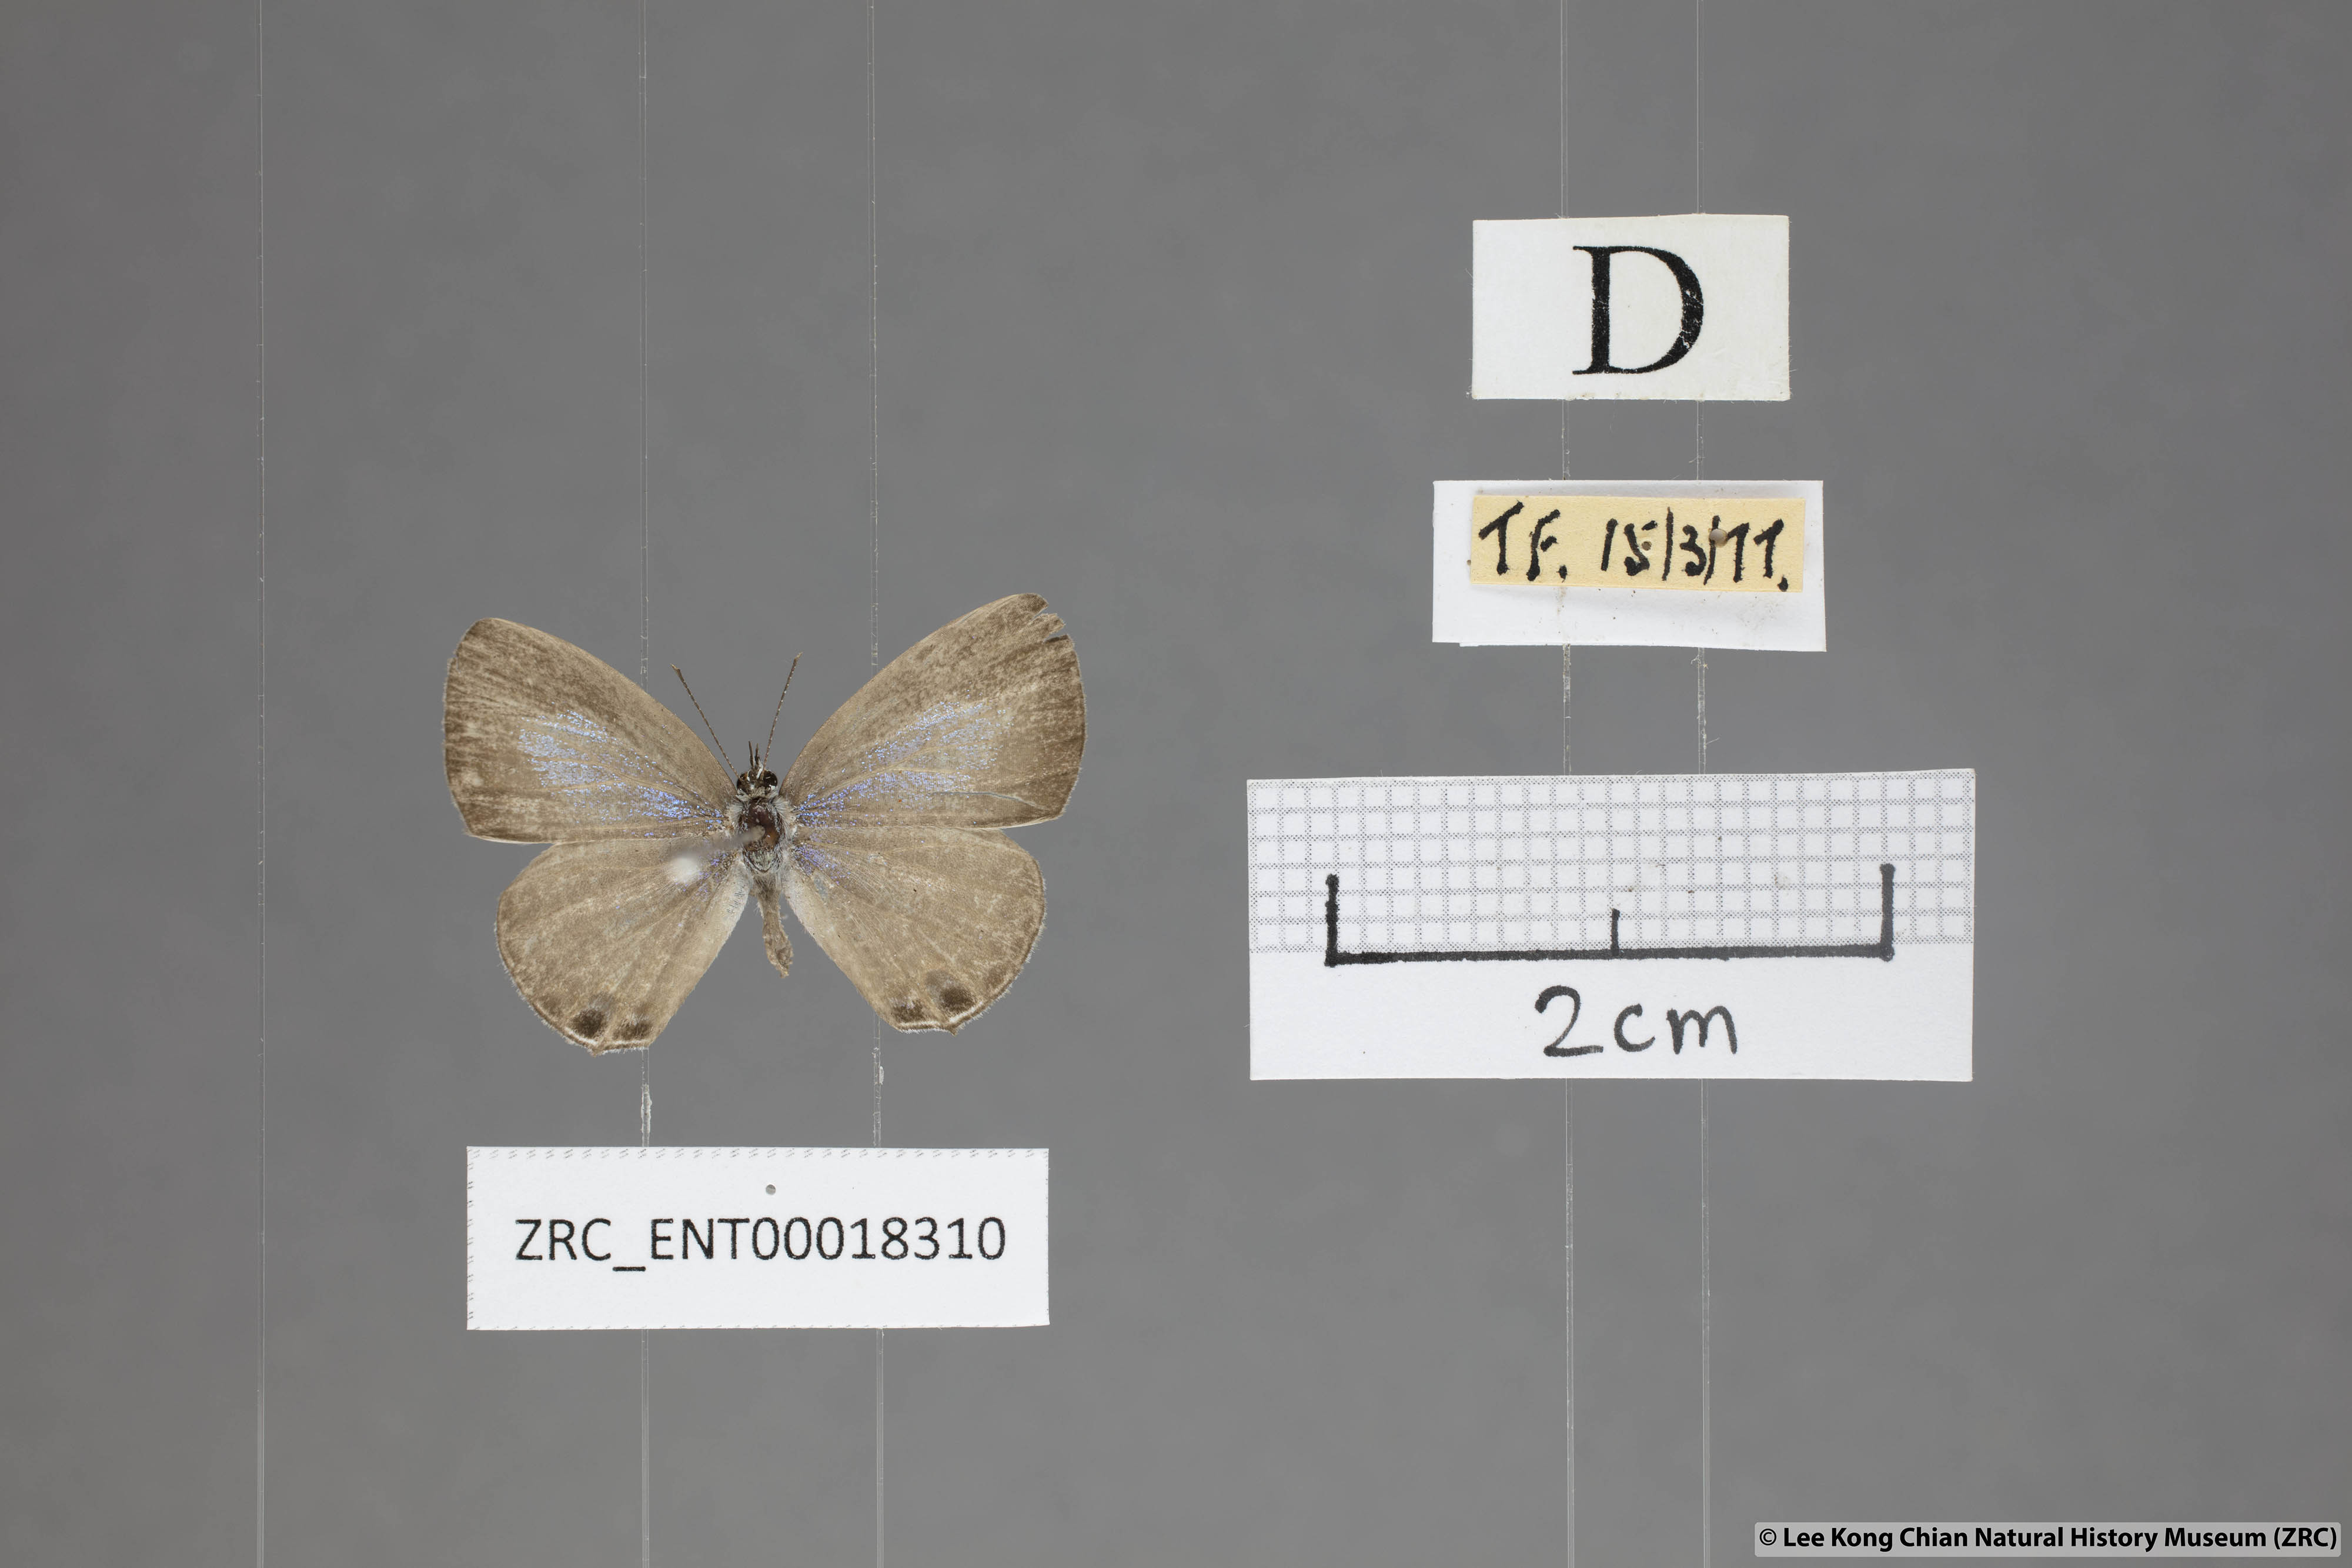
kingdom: Animalia
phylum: Arthropoda
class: Insecta
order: Lepidoptera
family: Lycaenidae
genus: Nacaduba
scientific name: Nacaduba berenice
